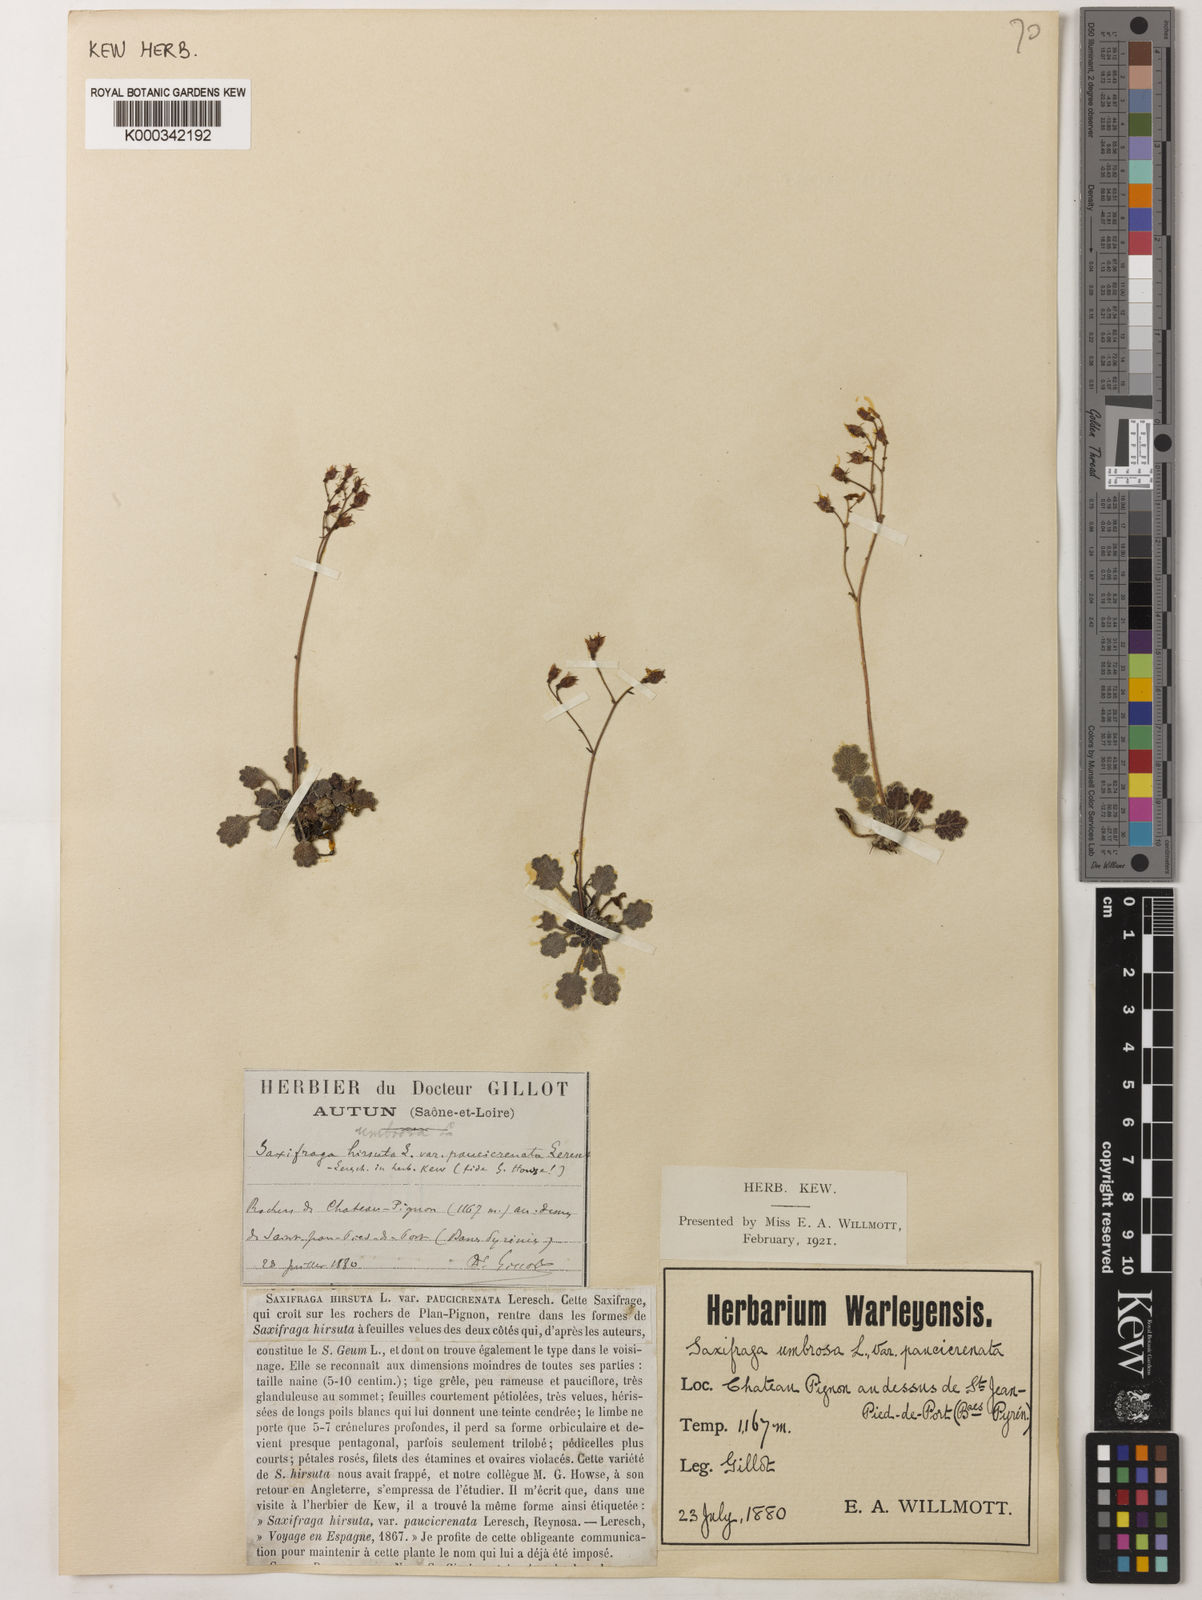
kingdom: Plantae
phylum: Tracheophyta
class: Magnoliopsida
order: Saxifragales
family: Saxifragaceae
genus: Saxifraga
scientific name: Saxifraga hirsuta
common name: Kidney saxifrage
